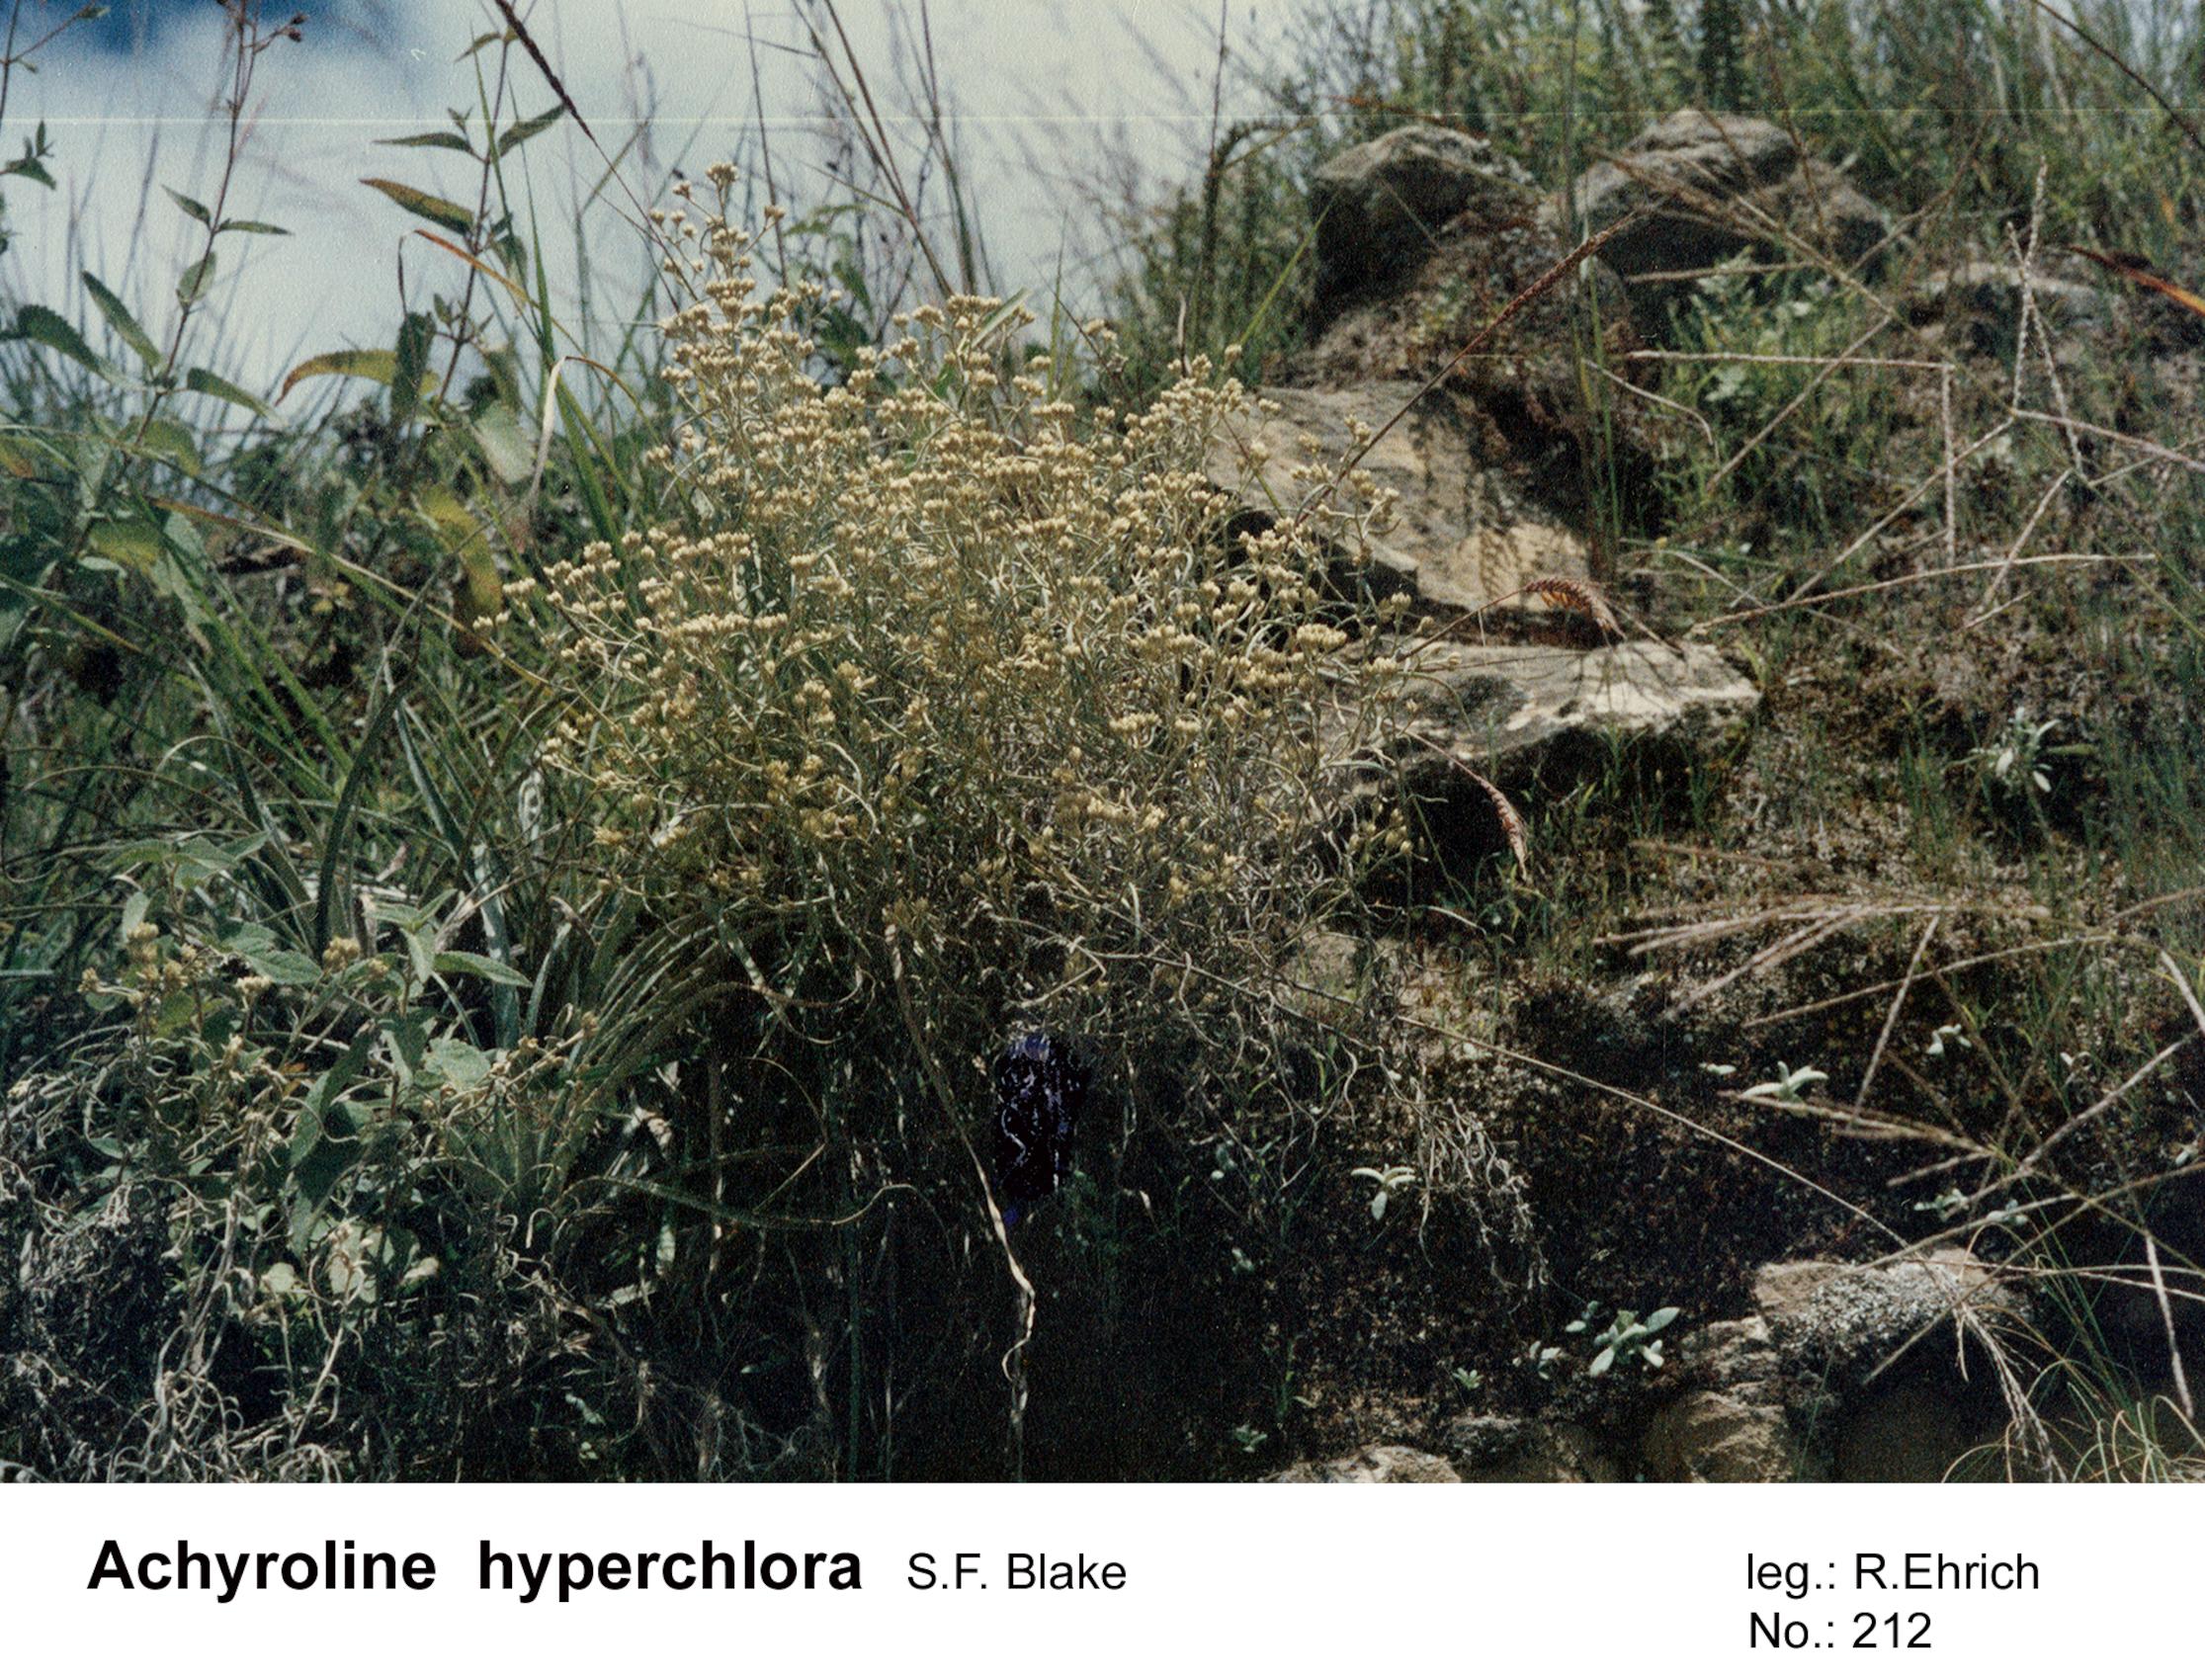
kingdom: Plantae
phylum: Tracheophyta
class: Magnoliopsida
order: Asterales
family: Asteraceae
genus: Achyrocline
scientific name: Achyrocline hyperchlora
